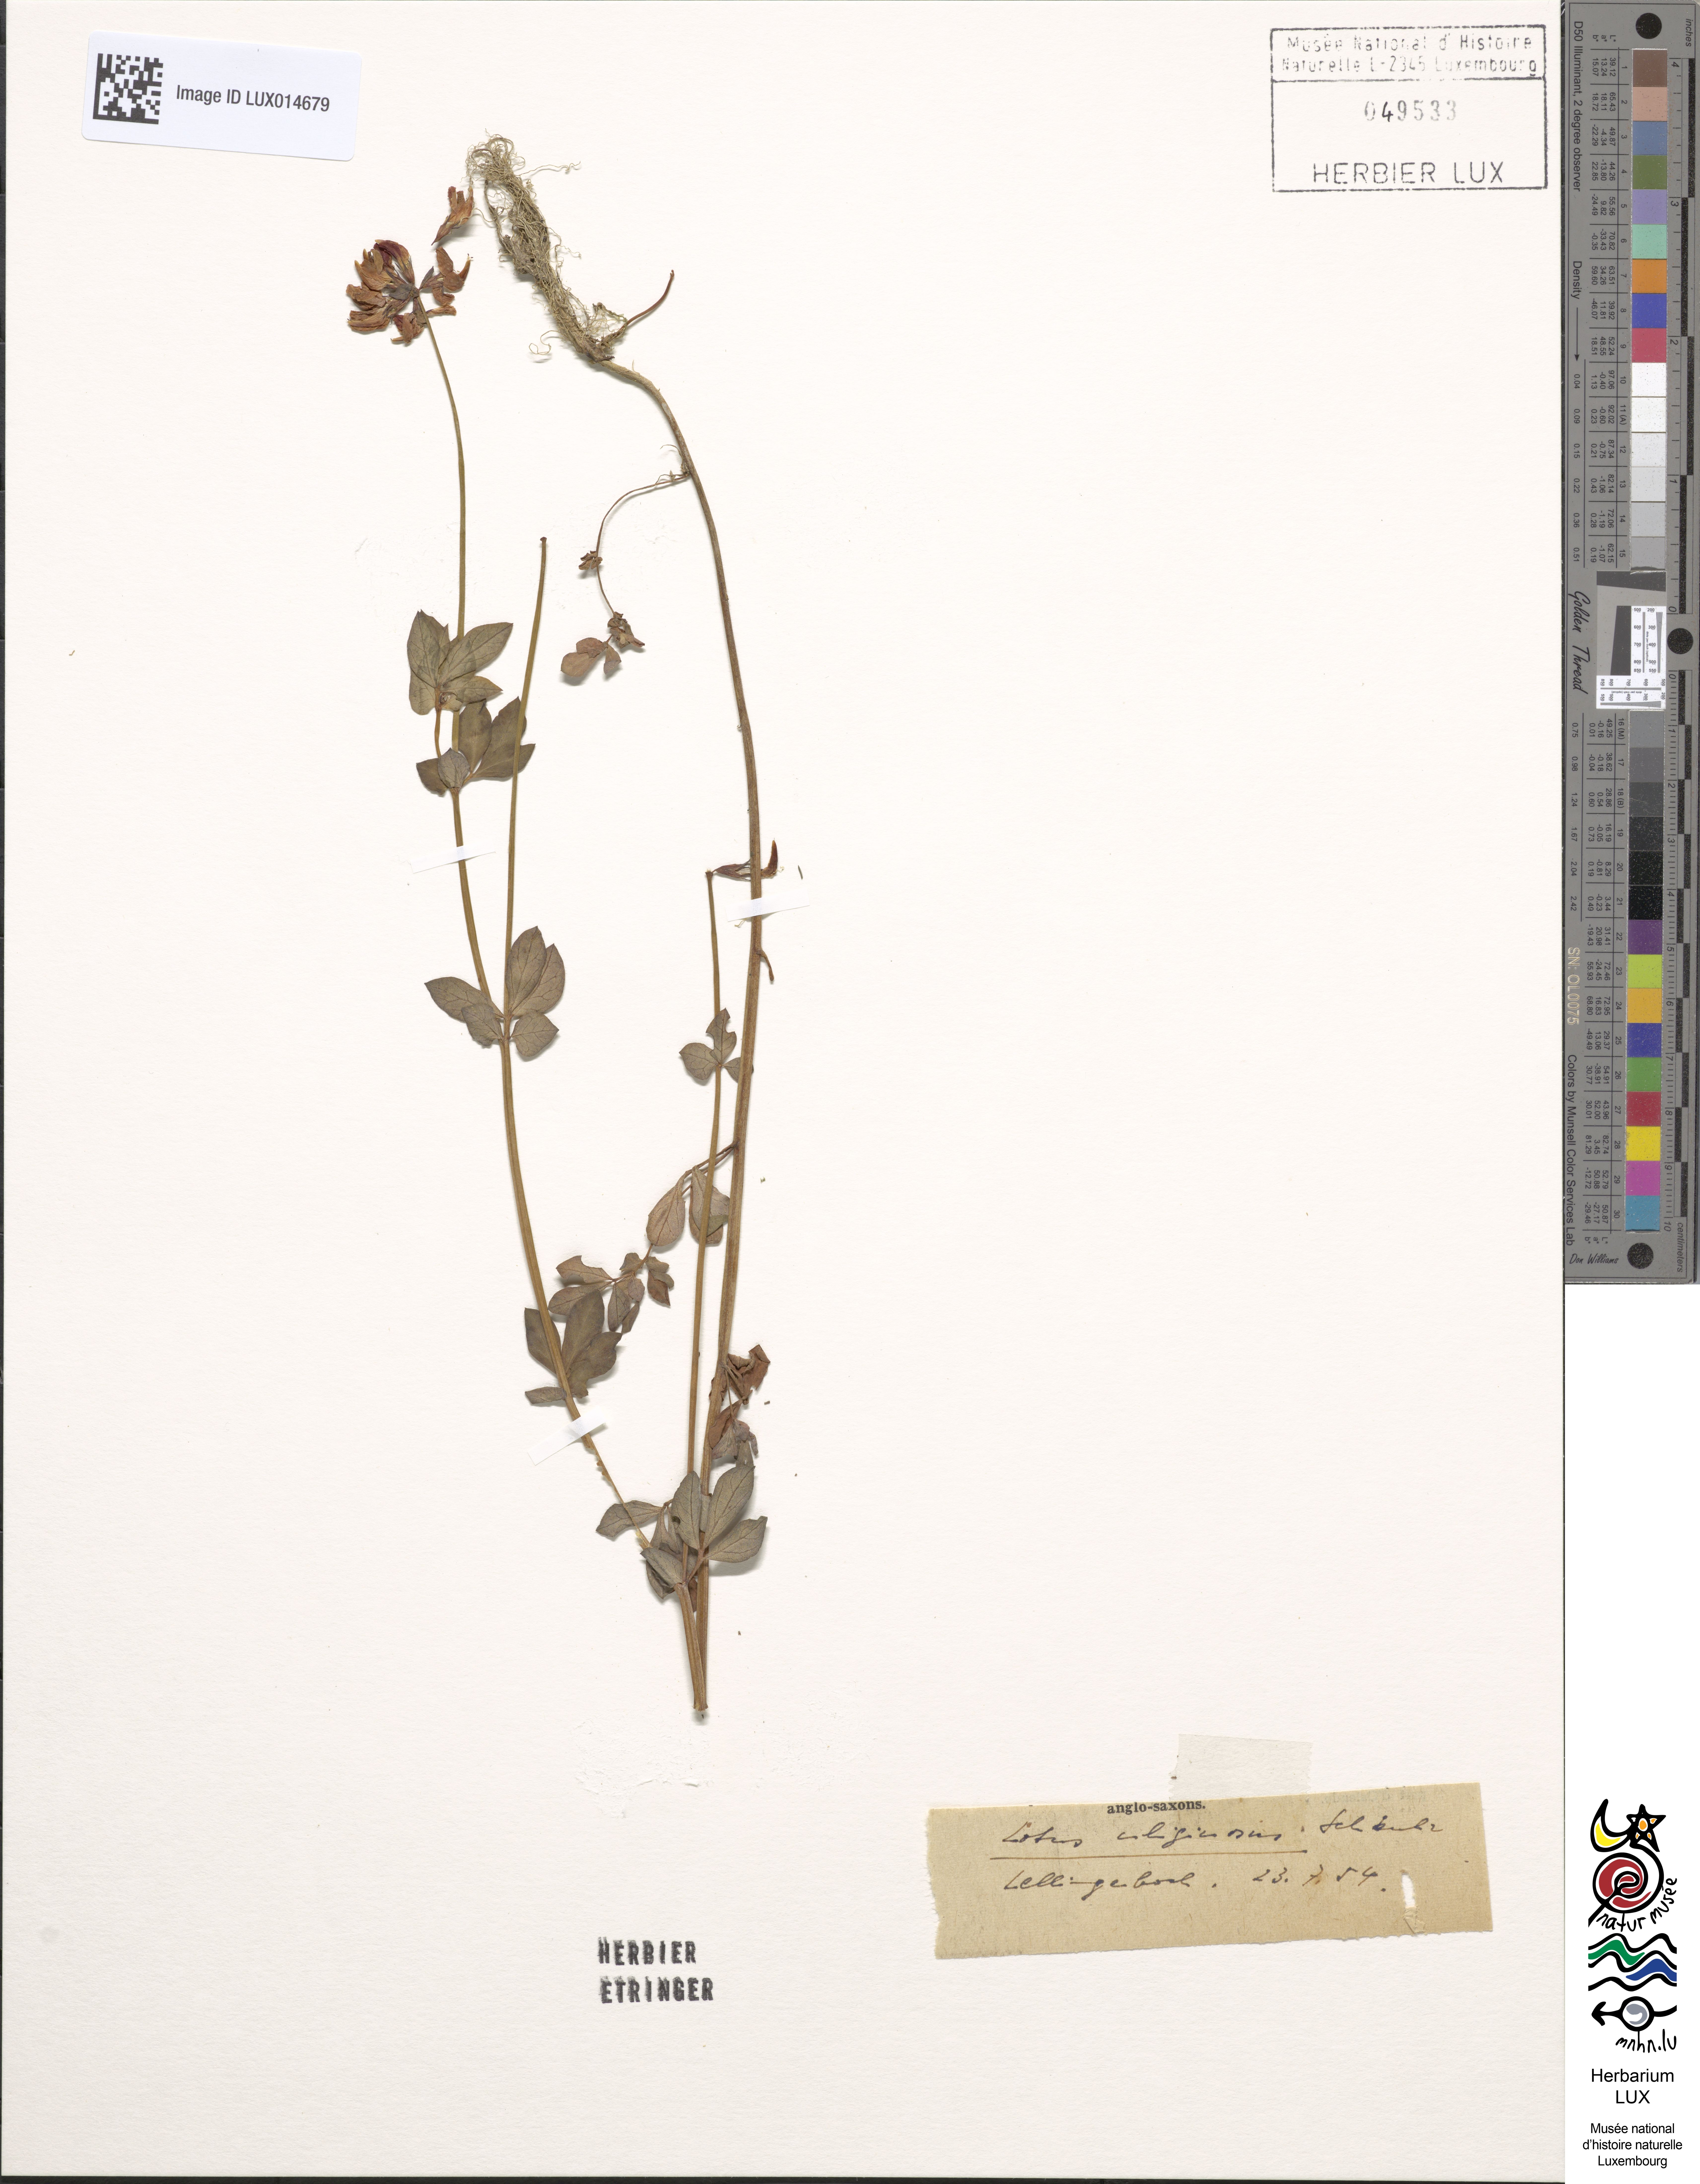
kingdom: Plantae
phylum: Tracheophyta
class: Magnoliopsida
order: Fabales
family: Fabaceae
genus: Lotus
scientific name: Lotus pedunculatus
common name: Greater birdsfoot-trefoil
